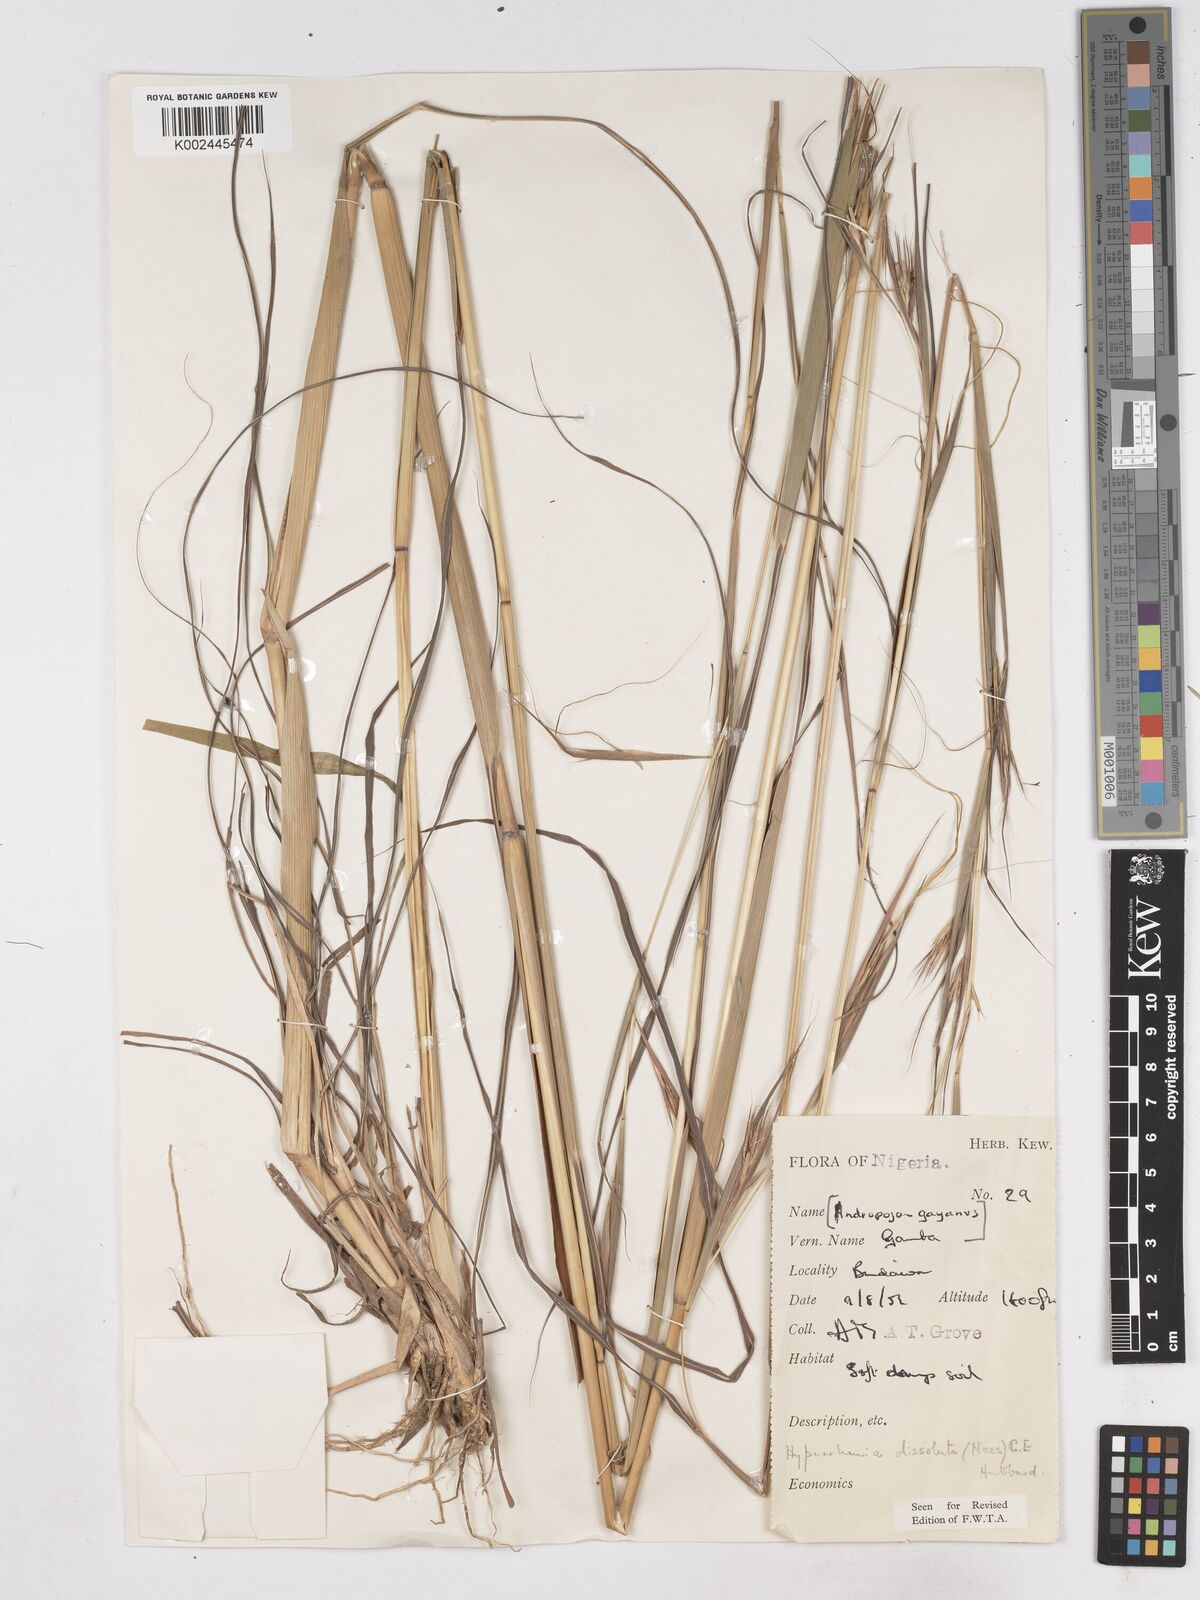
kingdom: Plantae
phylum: Tracheophyta
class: Liliopsida
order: Poales
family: Poaceae
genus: Hyperthelia
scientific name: Hyperthelia dissoluta
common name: Yellow thatching grass
